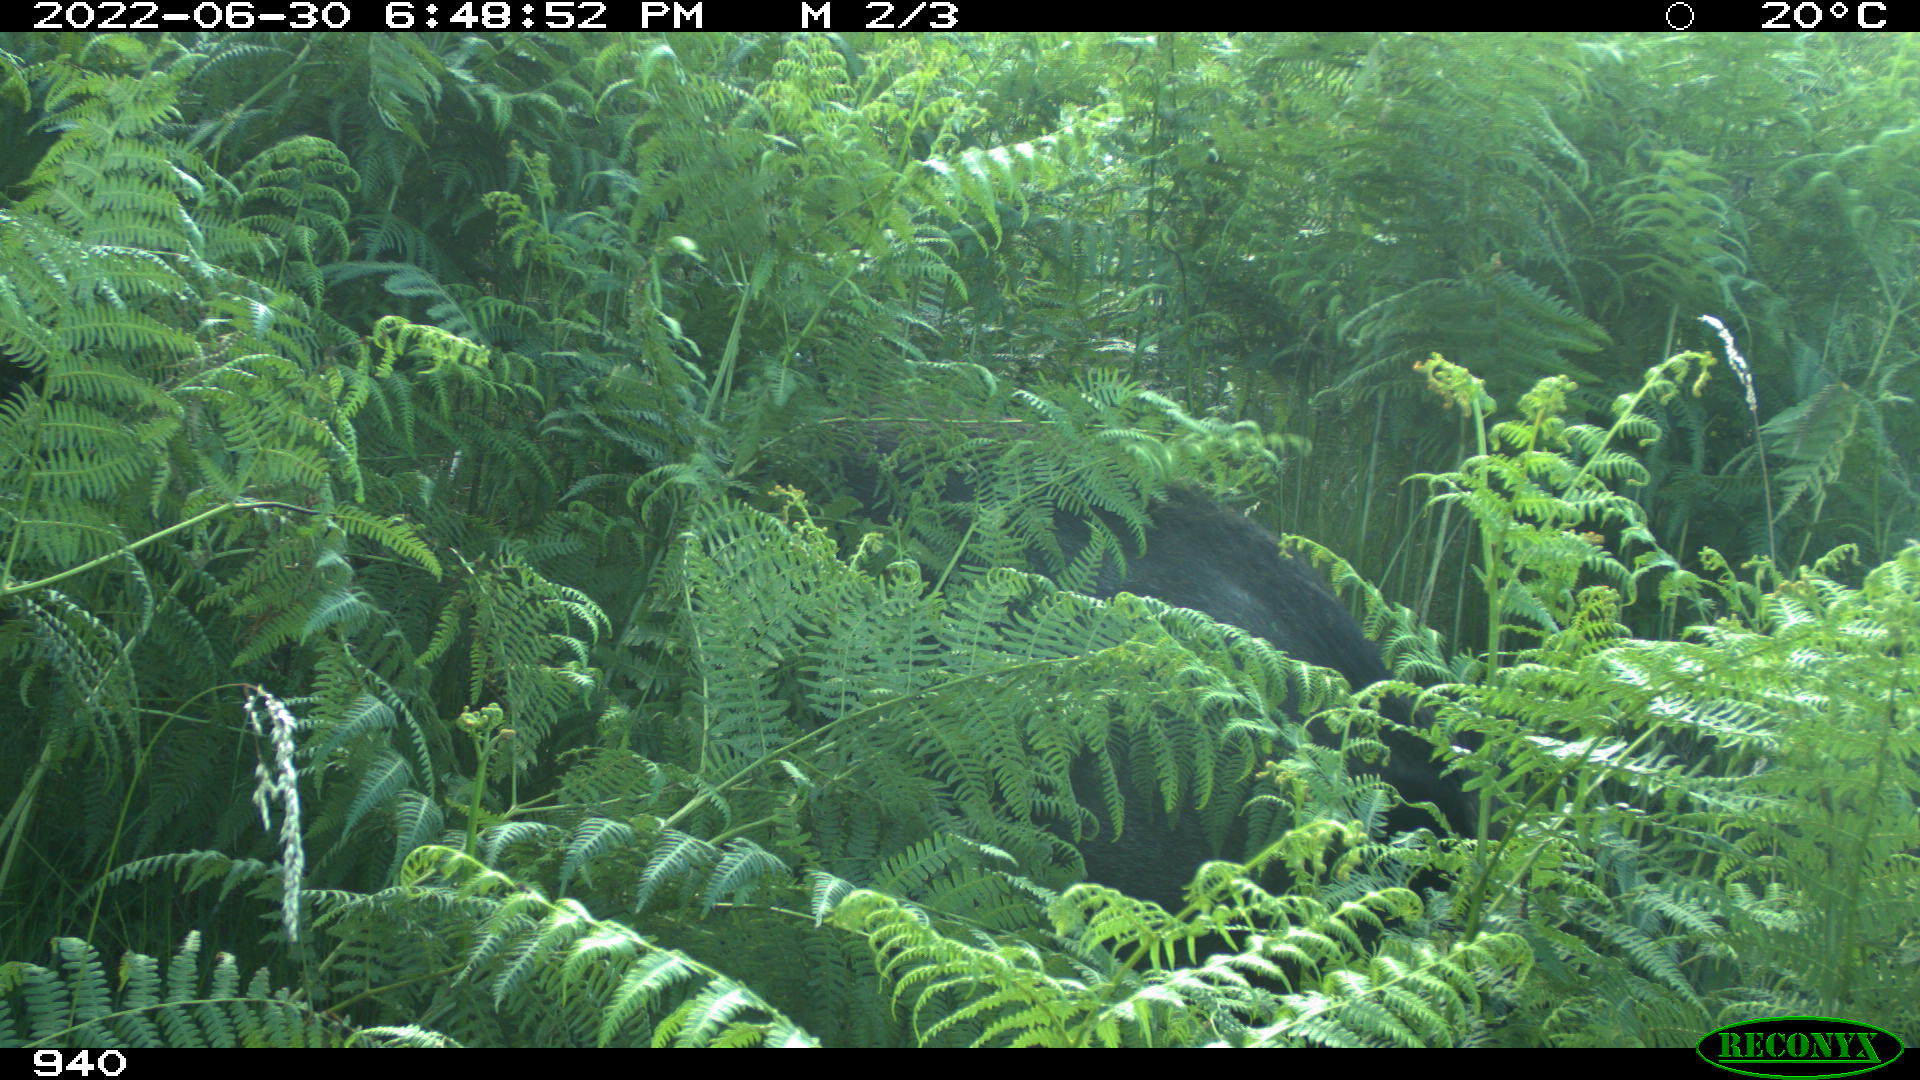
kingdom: Animalia
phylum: Chordata
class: Mammalia
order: Artiodactyla
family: Suidae
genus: Sus
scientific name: Sus scrofa
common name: Wild boar
